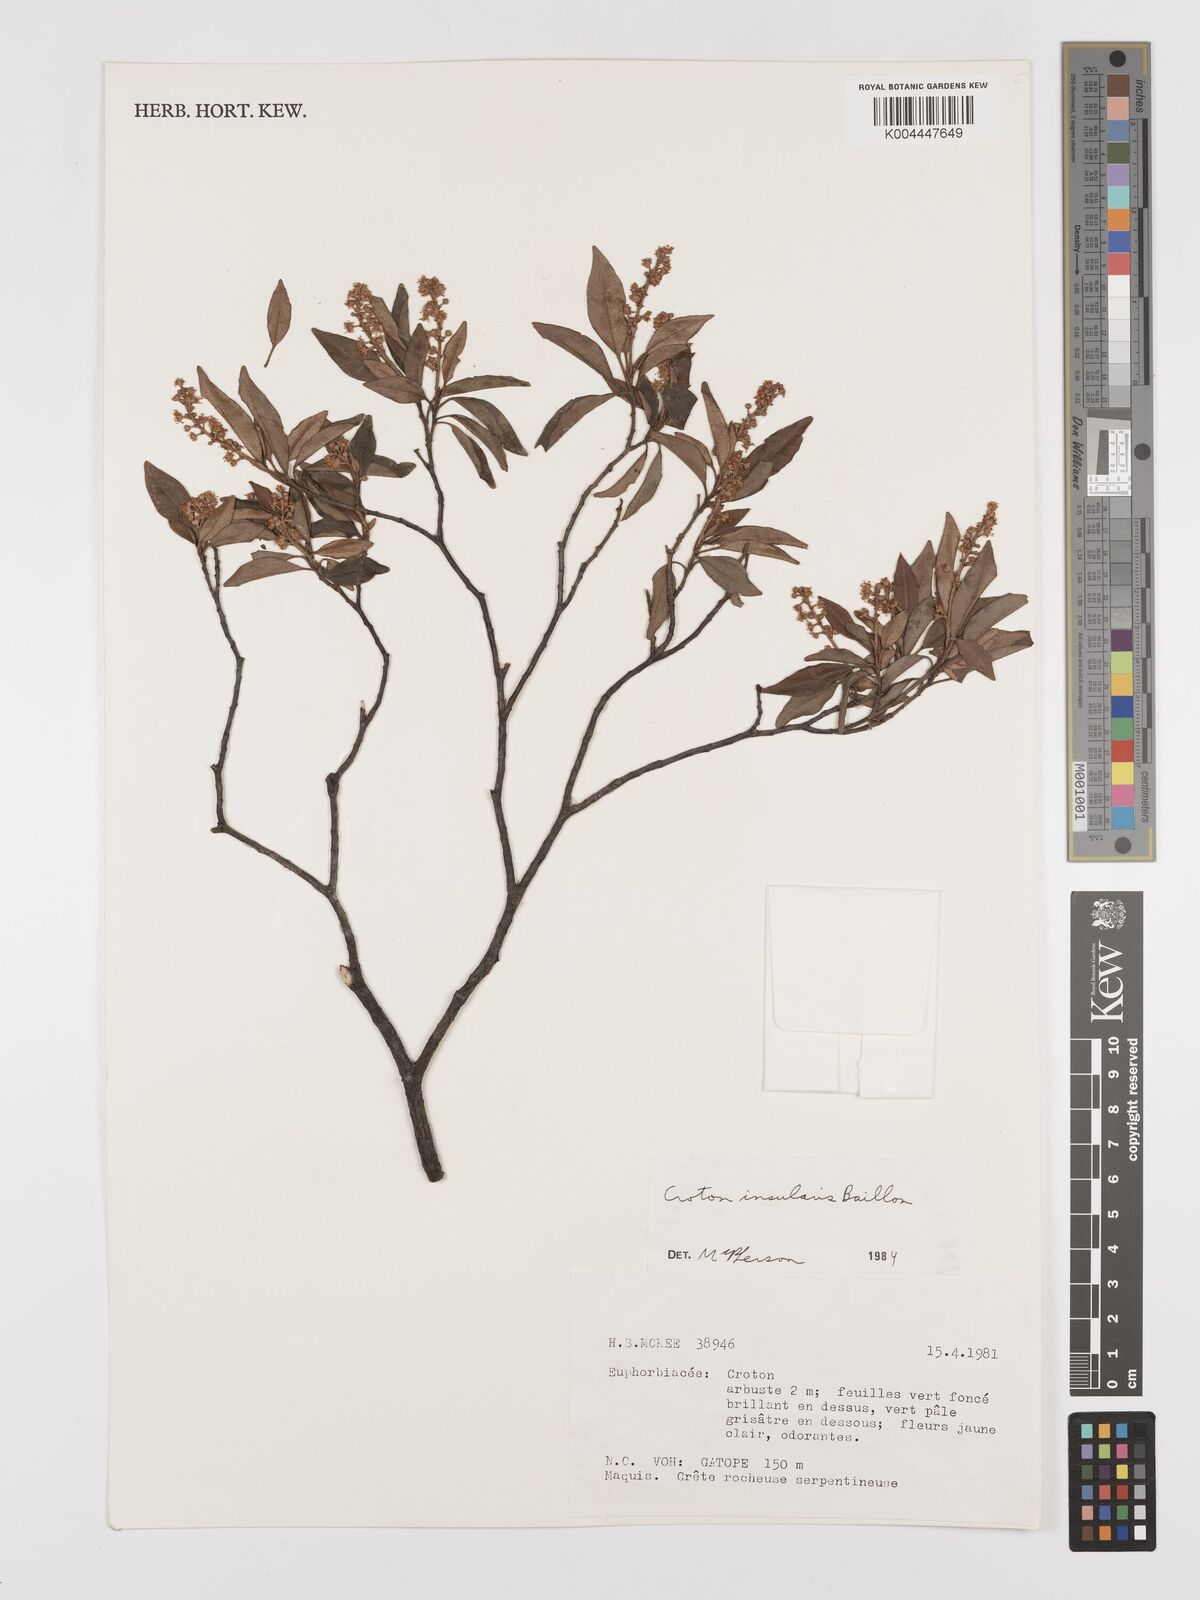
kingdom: Plantae
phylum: Tracheophyta
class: Magnoliopsida
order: Malpighiales
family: Euphorbiaceae
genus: Croton
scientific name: Croton insularis
